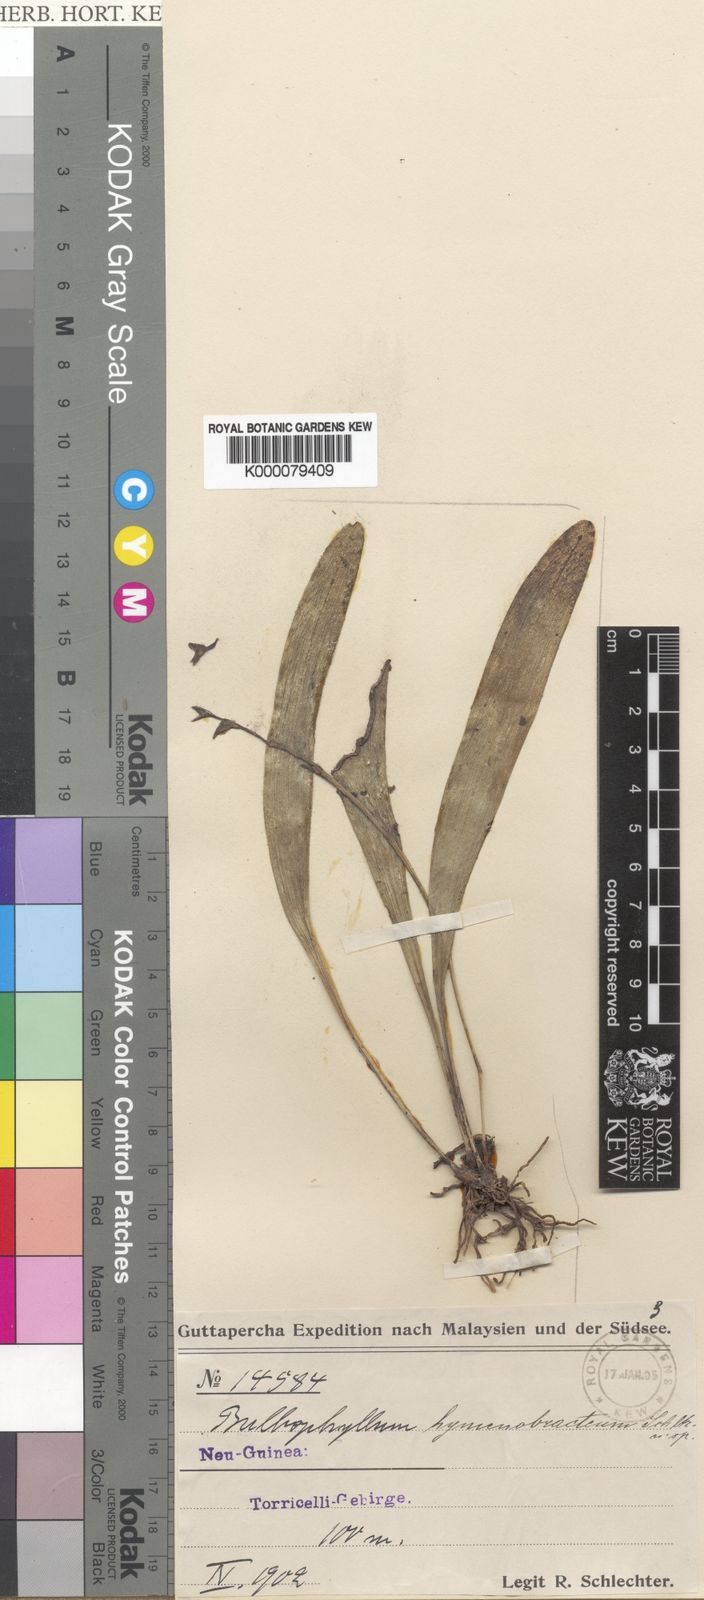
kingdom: Plantae
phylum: Tracheophyta
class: Liliopsida
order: Asparagales
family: Orchidaceae
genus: Bulbophyllum
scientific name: Bulbophyllum infundibuliforme
